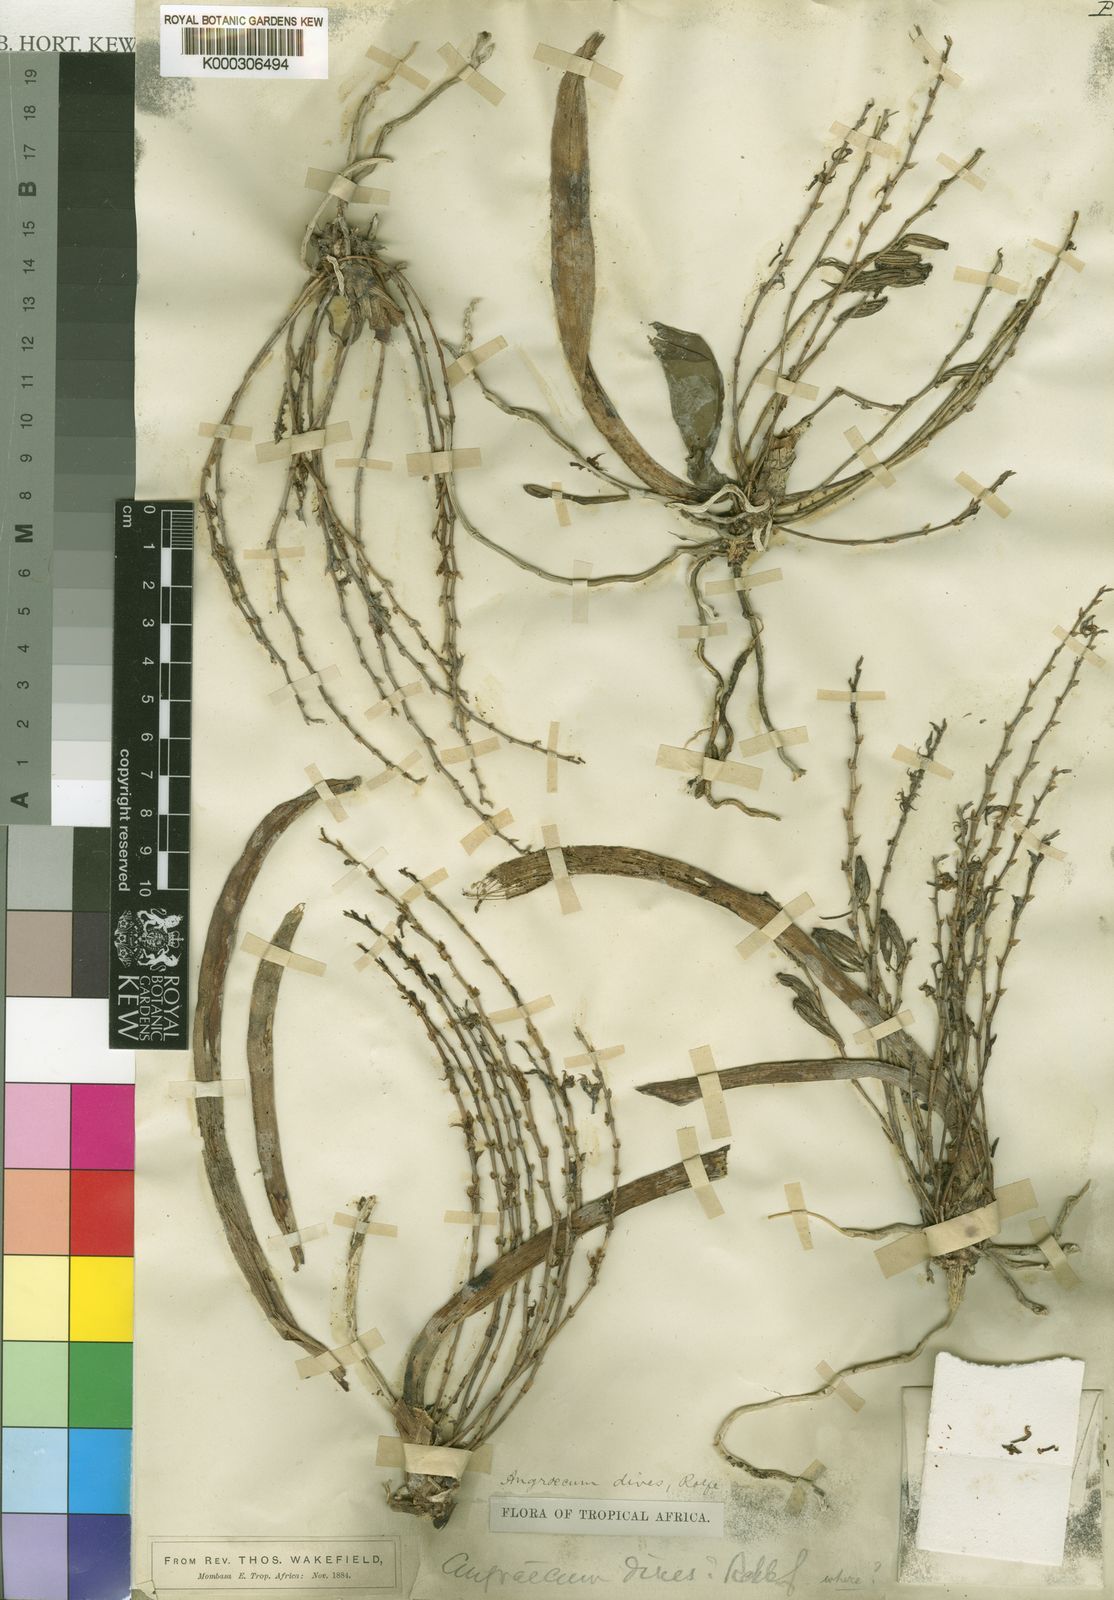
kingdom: Plantae
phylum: Tracheophyta
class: Liliopsida
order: Asparagales
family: Orchidaceae
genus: Angraecum
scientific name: Angraecum dives
